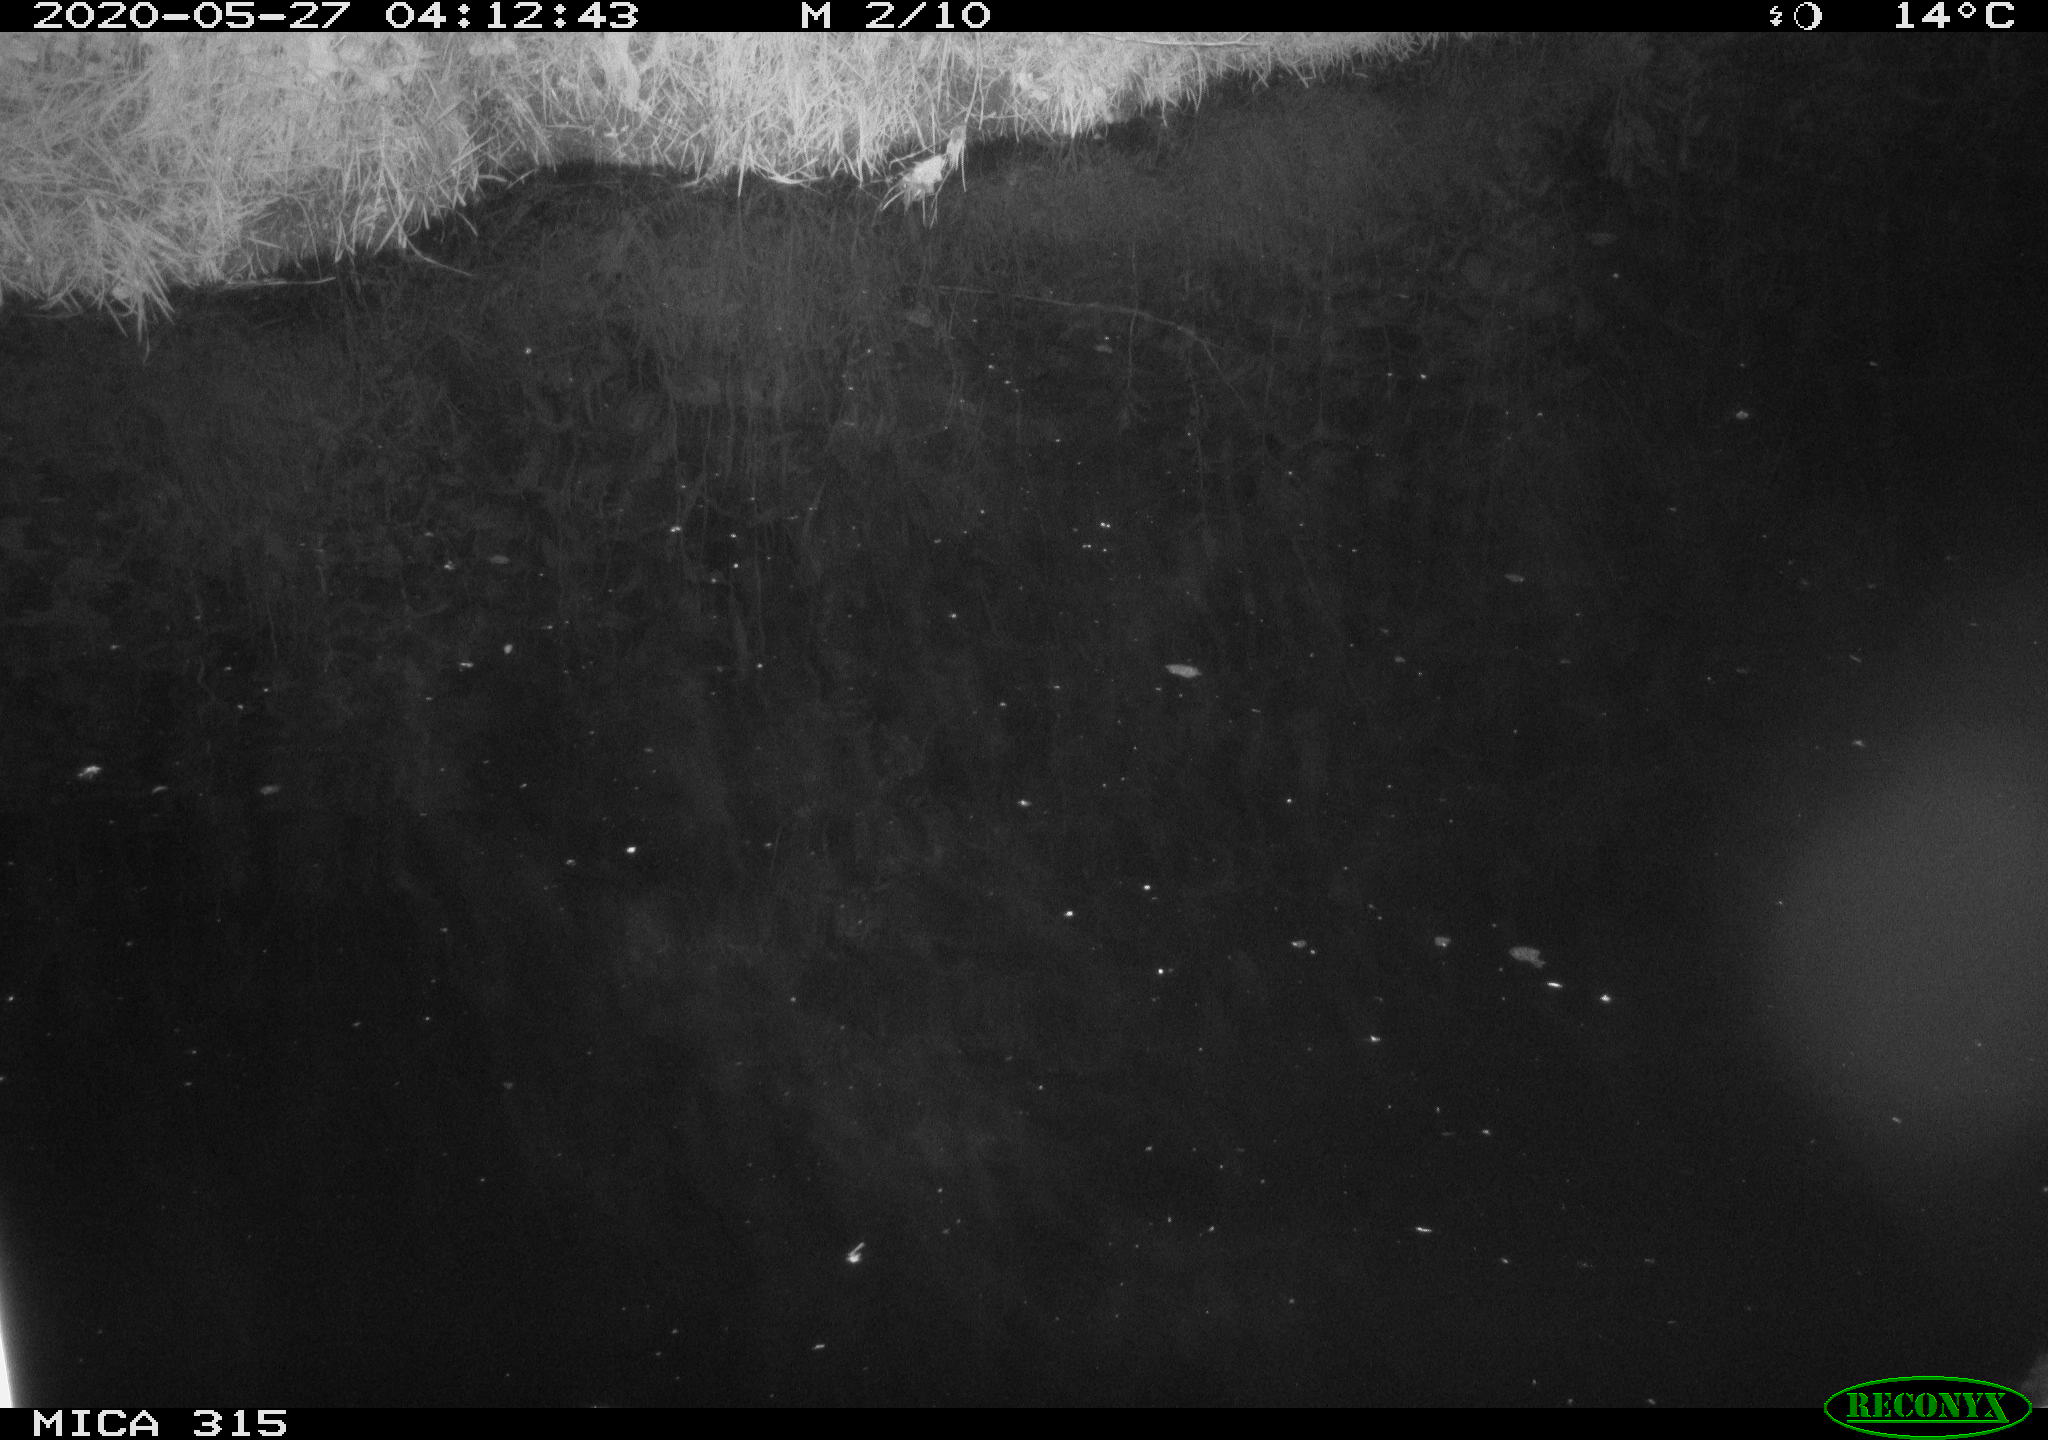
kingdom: Animalia
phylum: Chordata
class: Aves
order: Anseriformes
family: Anatidae
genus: Anas
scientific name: Anas platyrhynchos
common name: Mallard
